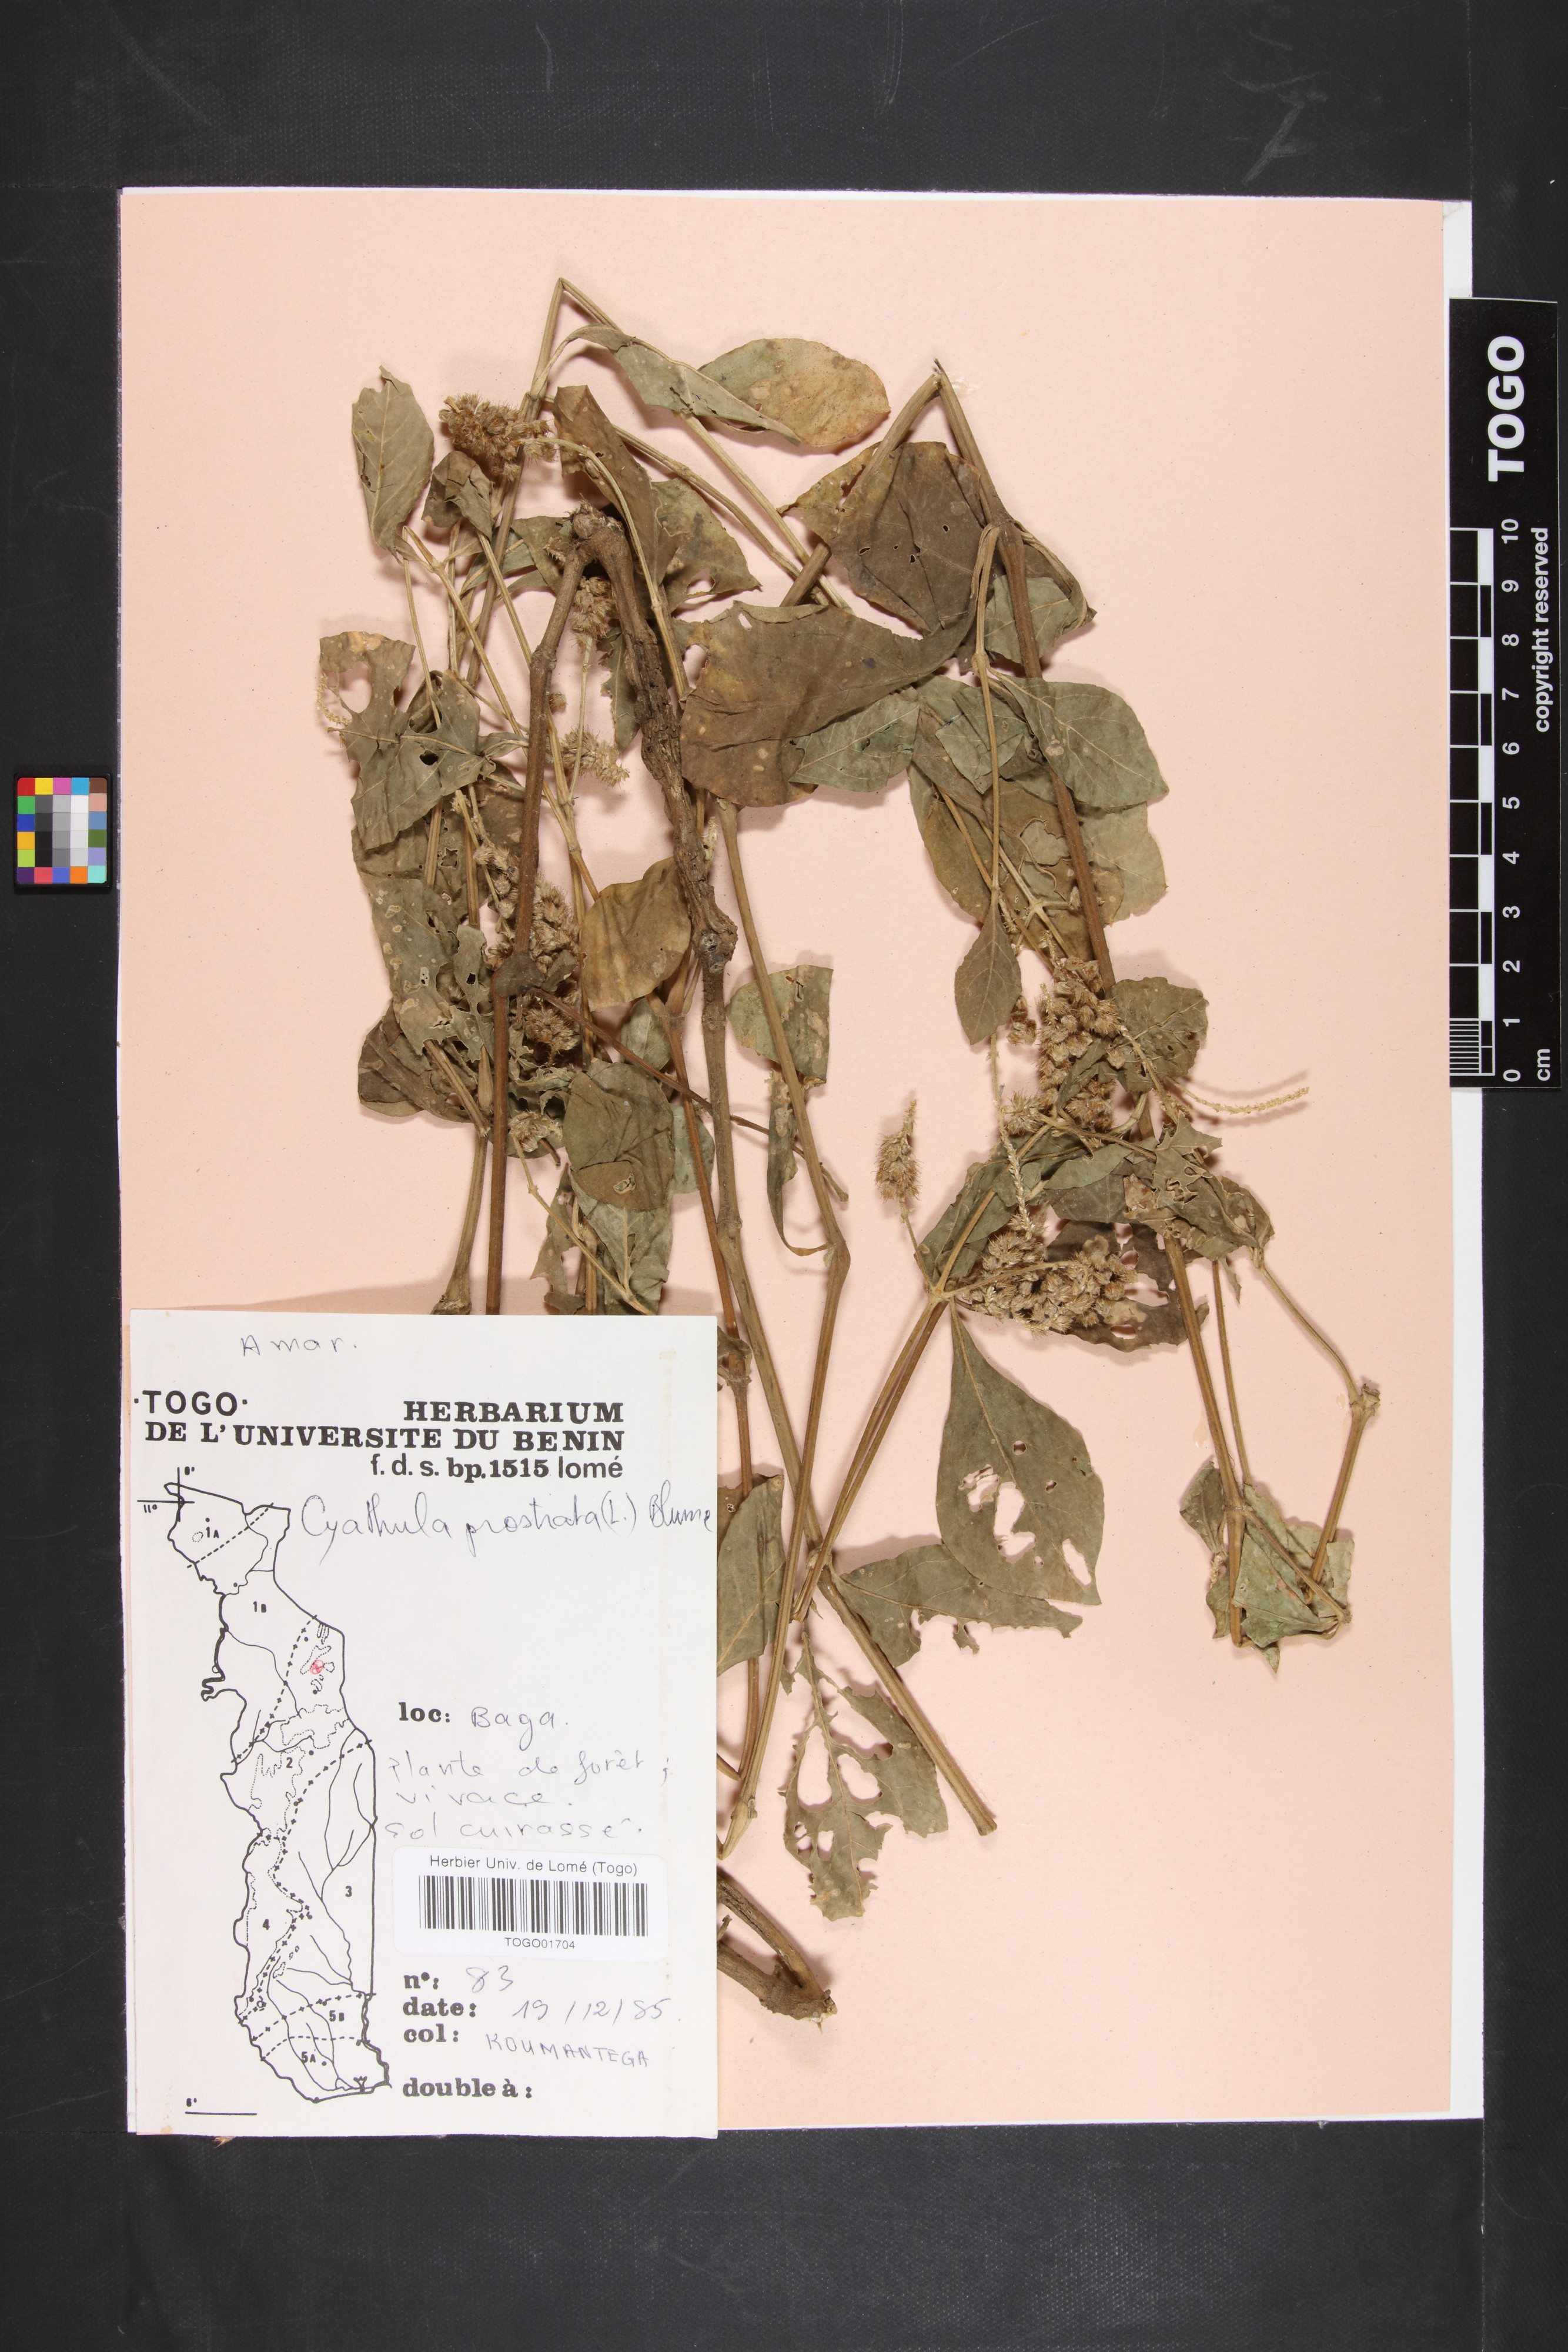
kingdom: Plantae
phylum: Tracheophyta
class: Magnoliopsida
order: Caryophyllales
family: Amaranthaceae
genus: Cyathula
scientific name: Cyathula prostrata
